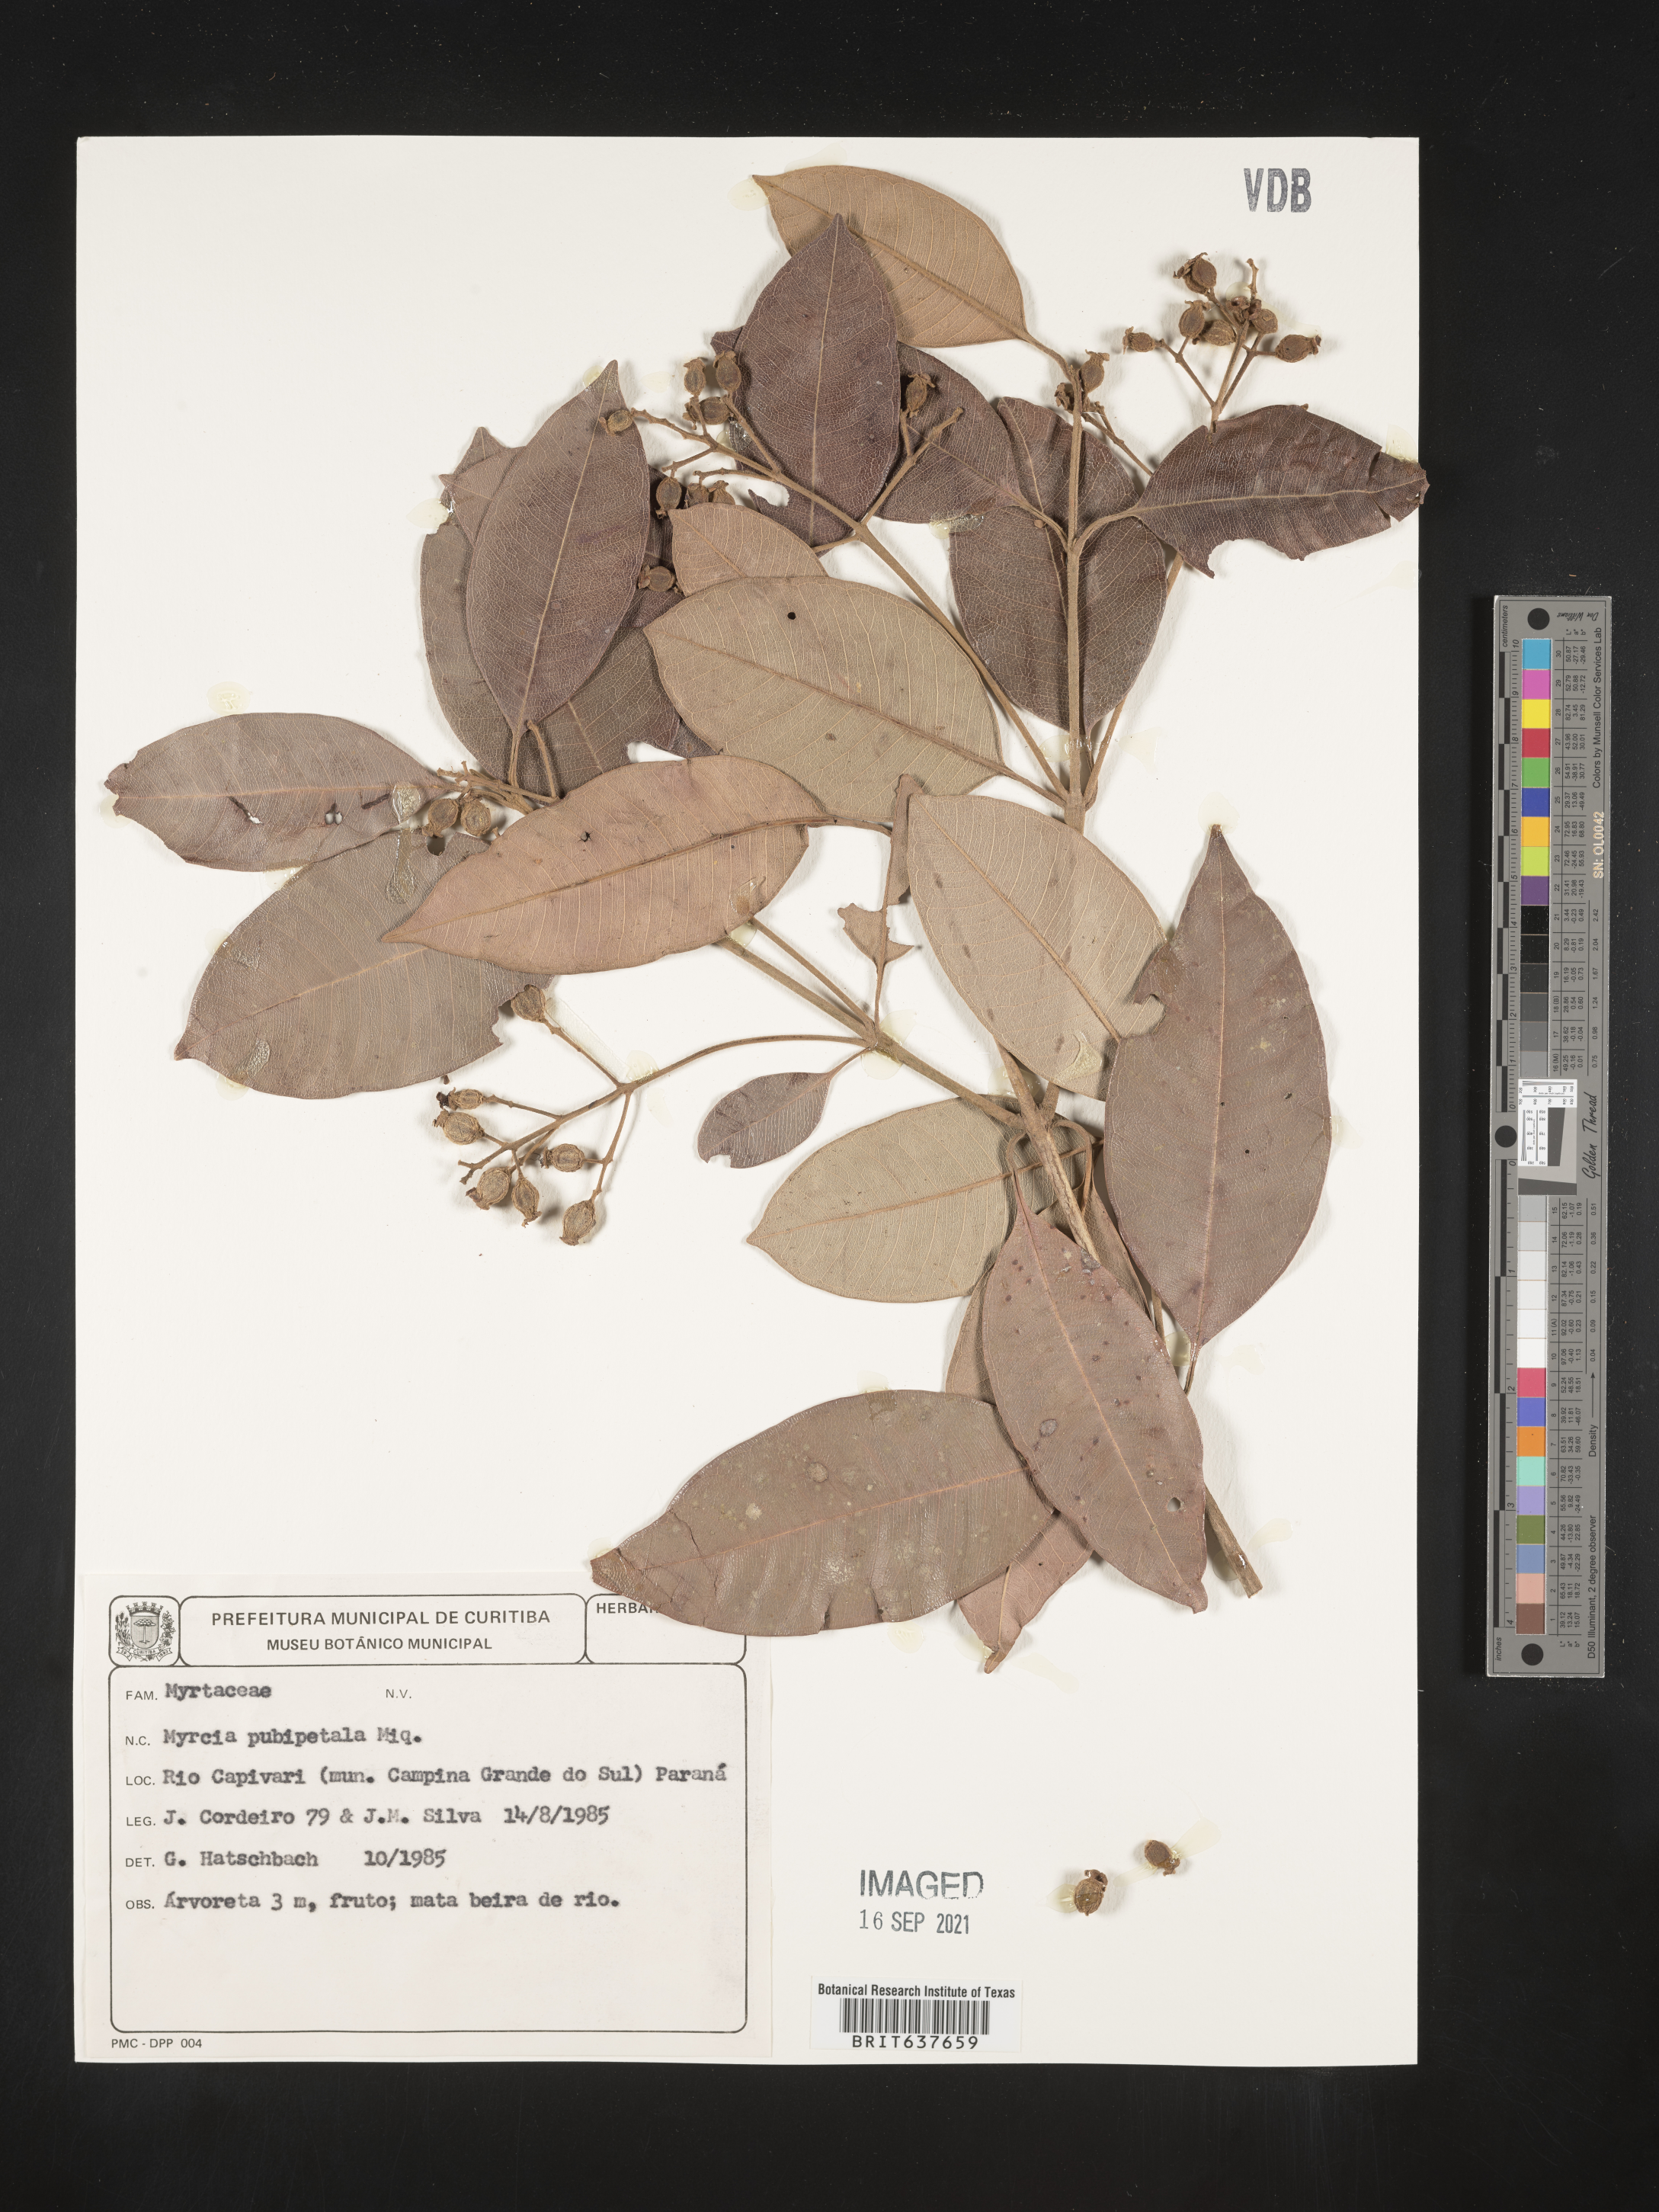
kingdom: Plantae
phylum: Tracheophyta
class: Magnoliopsida
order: Myrtales
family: Myrtaceae
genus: Myrcia
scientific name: Myrcia
